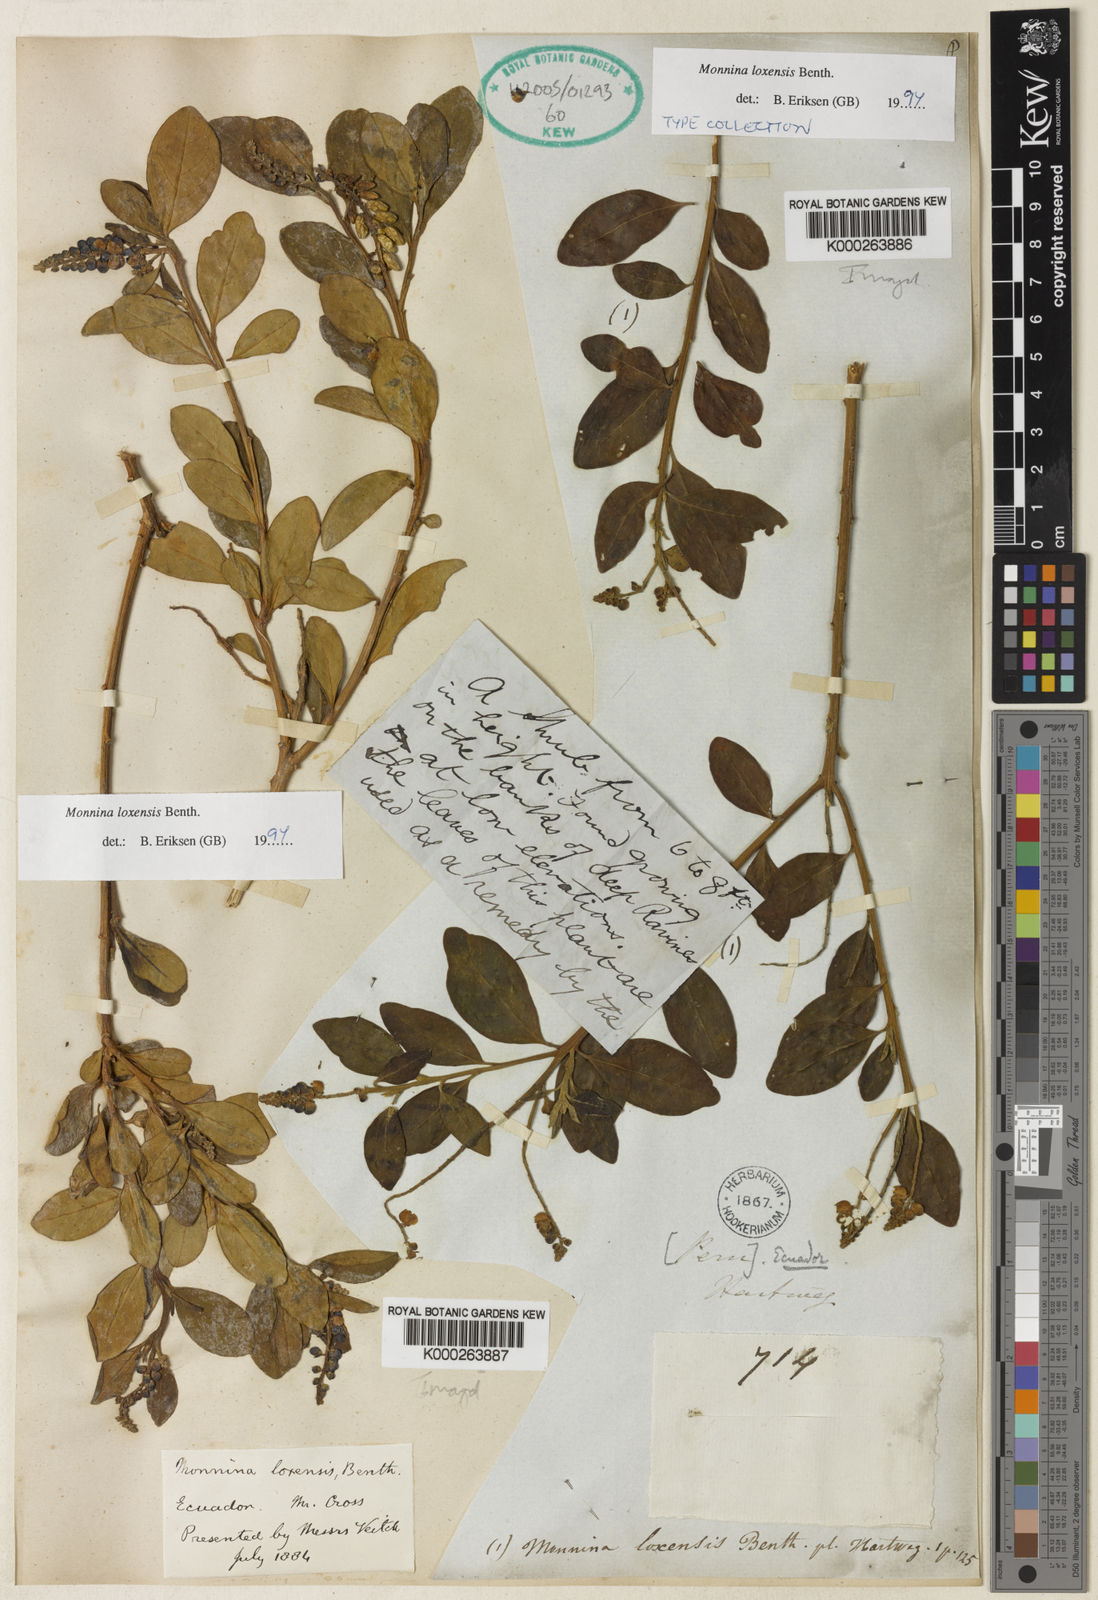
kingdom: Plantae
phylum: Tracheophyta
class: Magnoliopsida
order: Fabales
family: Polygalaceae
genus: Monnina
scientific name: Monnina loxensis
